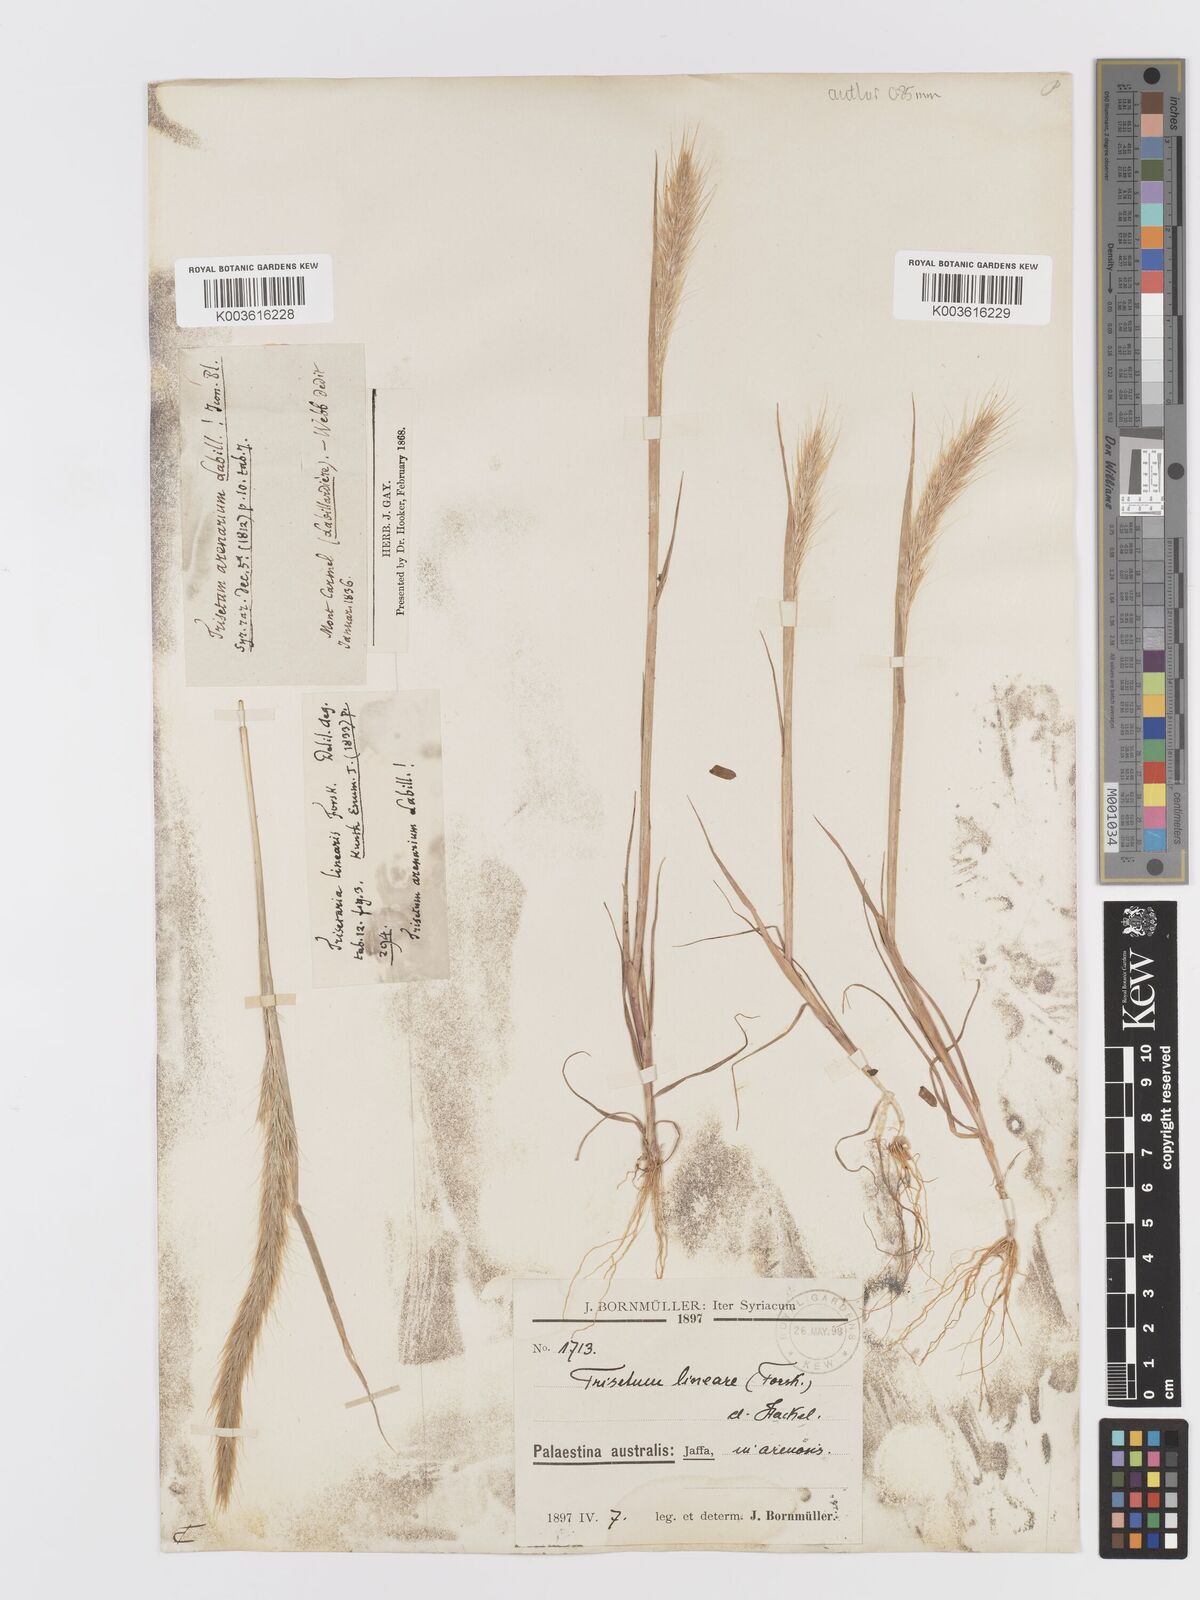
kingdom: Plantae
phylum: Tracheophyta
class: Liliopsida
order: Poales
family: Poaceae
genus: Trisetaria
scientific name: Trisetaria linearis
